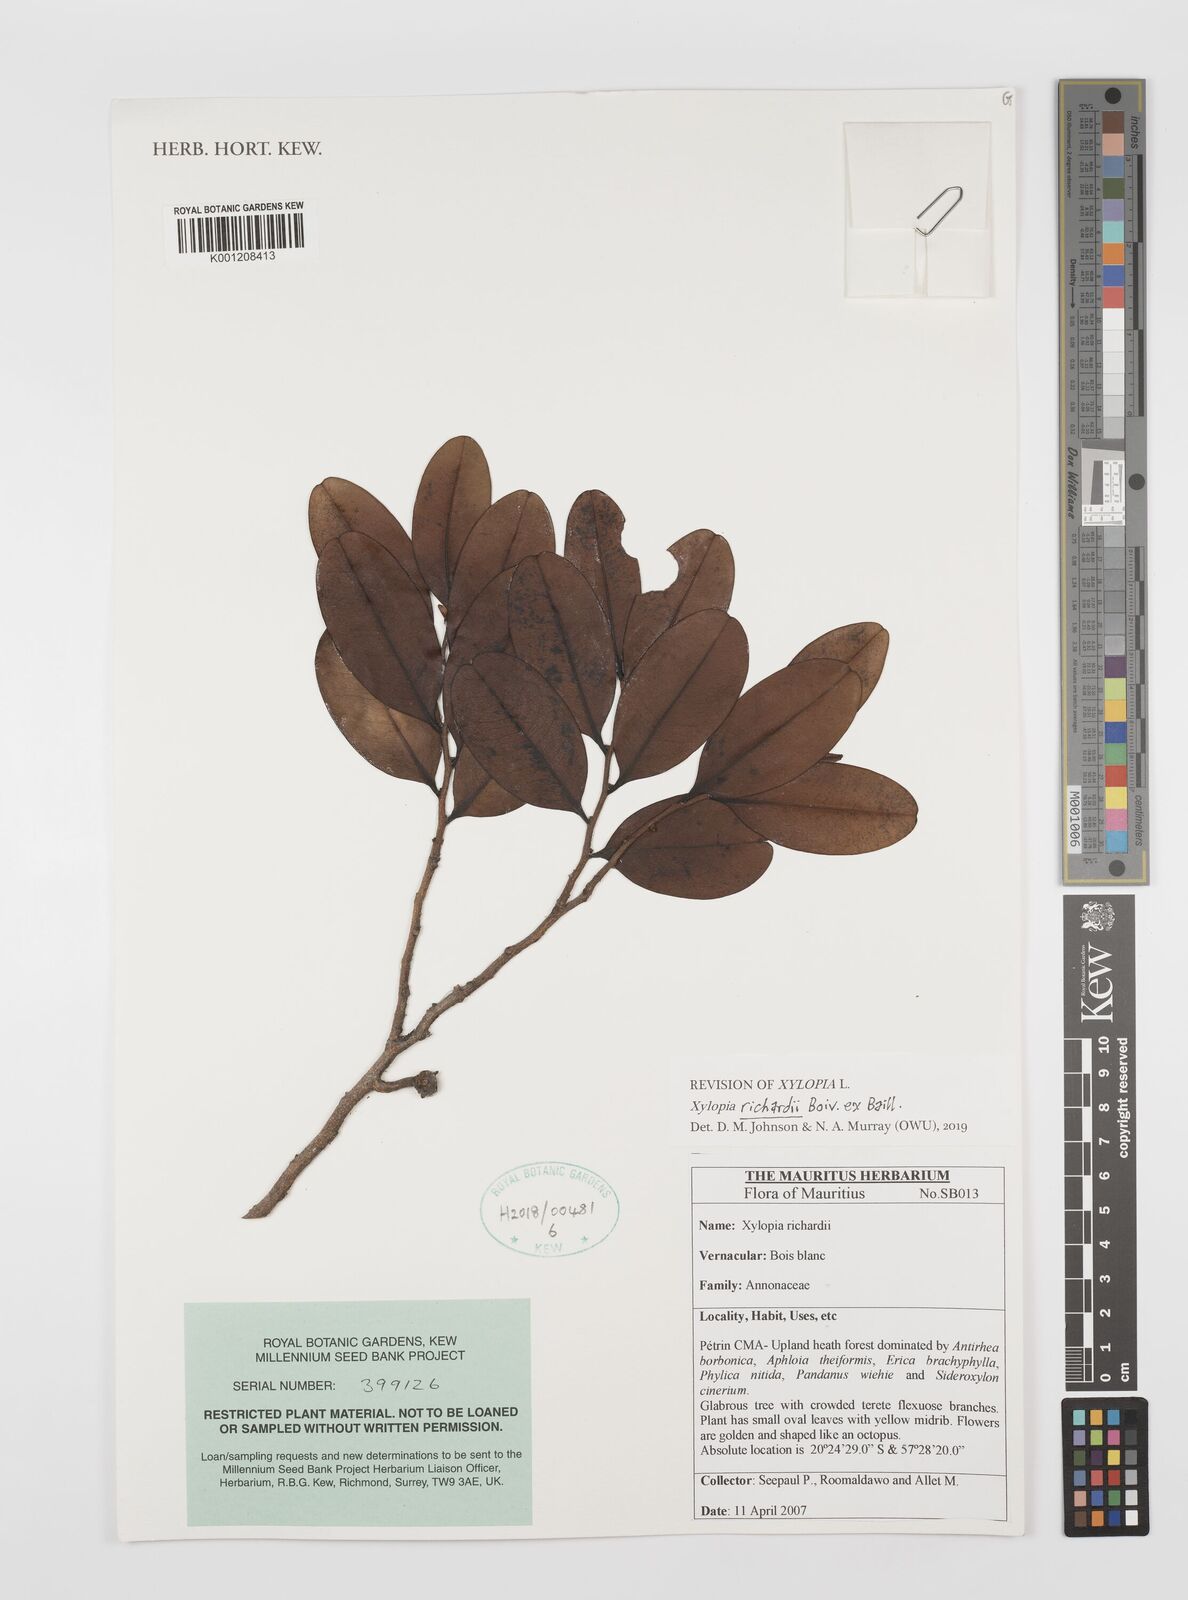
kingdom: Plantae
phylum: Tracheophyta
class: Magnoliopsida
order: Magnoliales
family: Annonaceae
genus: Xylopia
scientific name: Xylopia richardii
